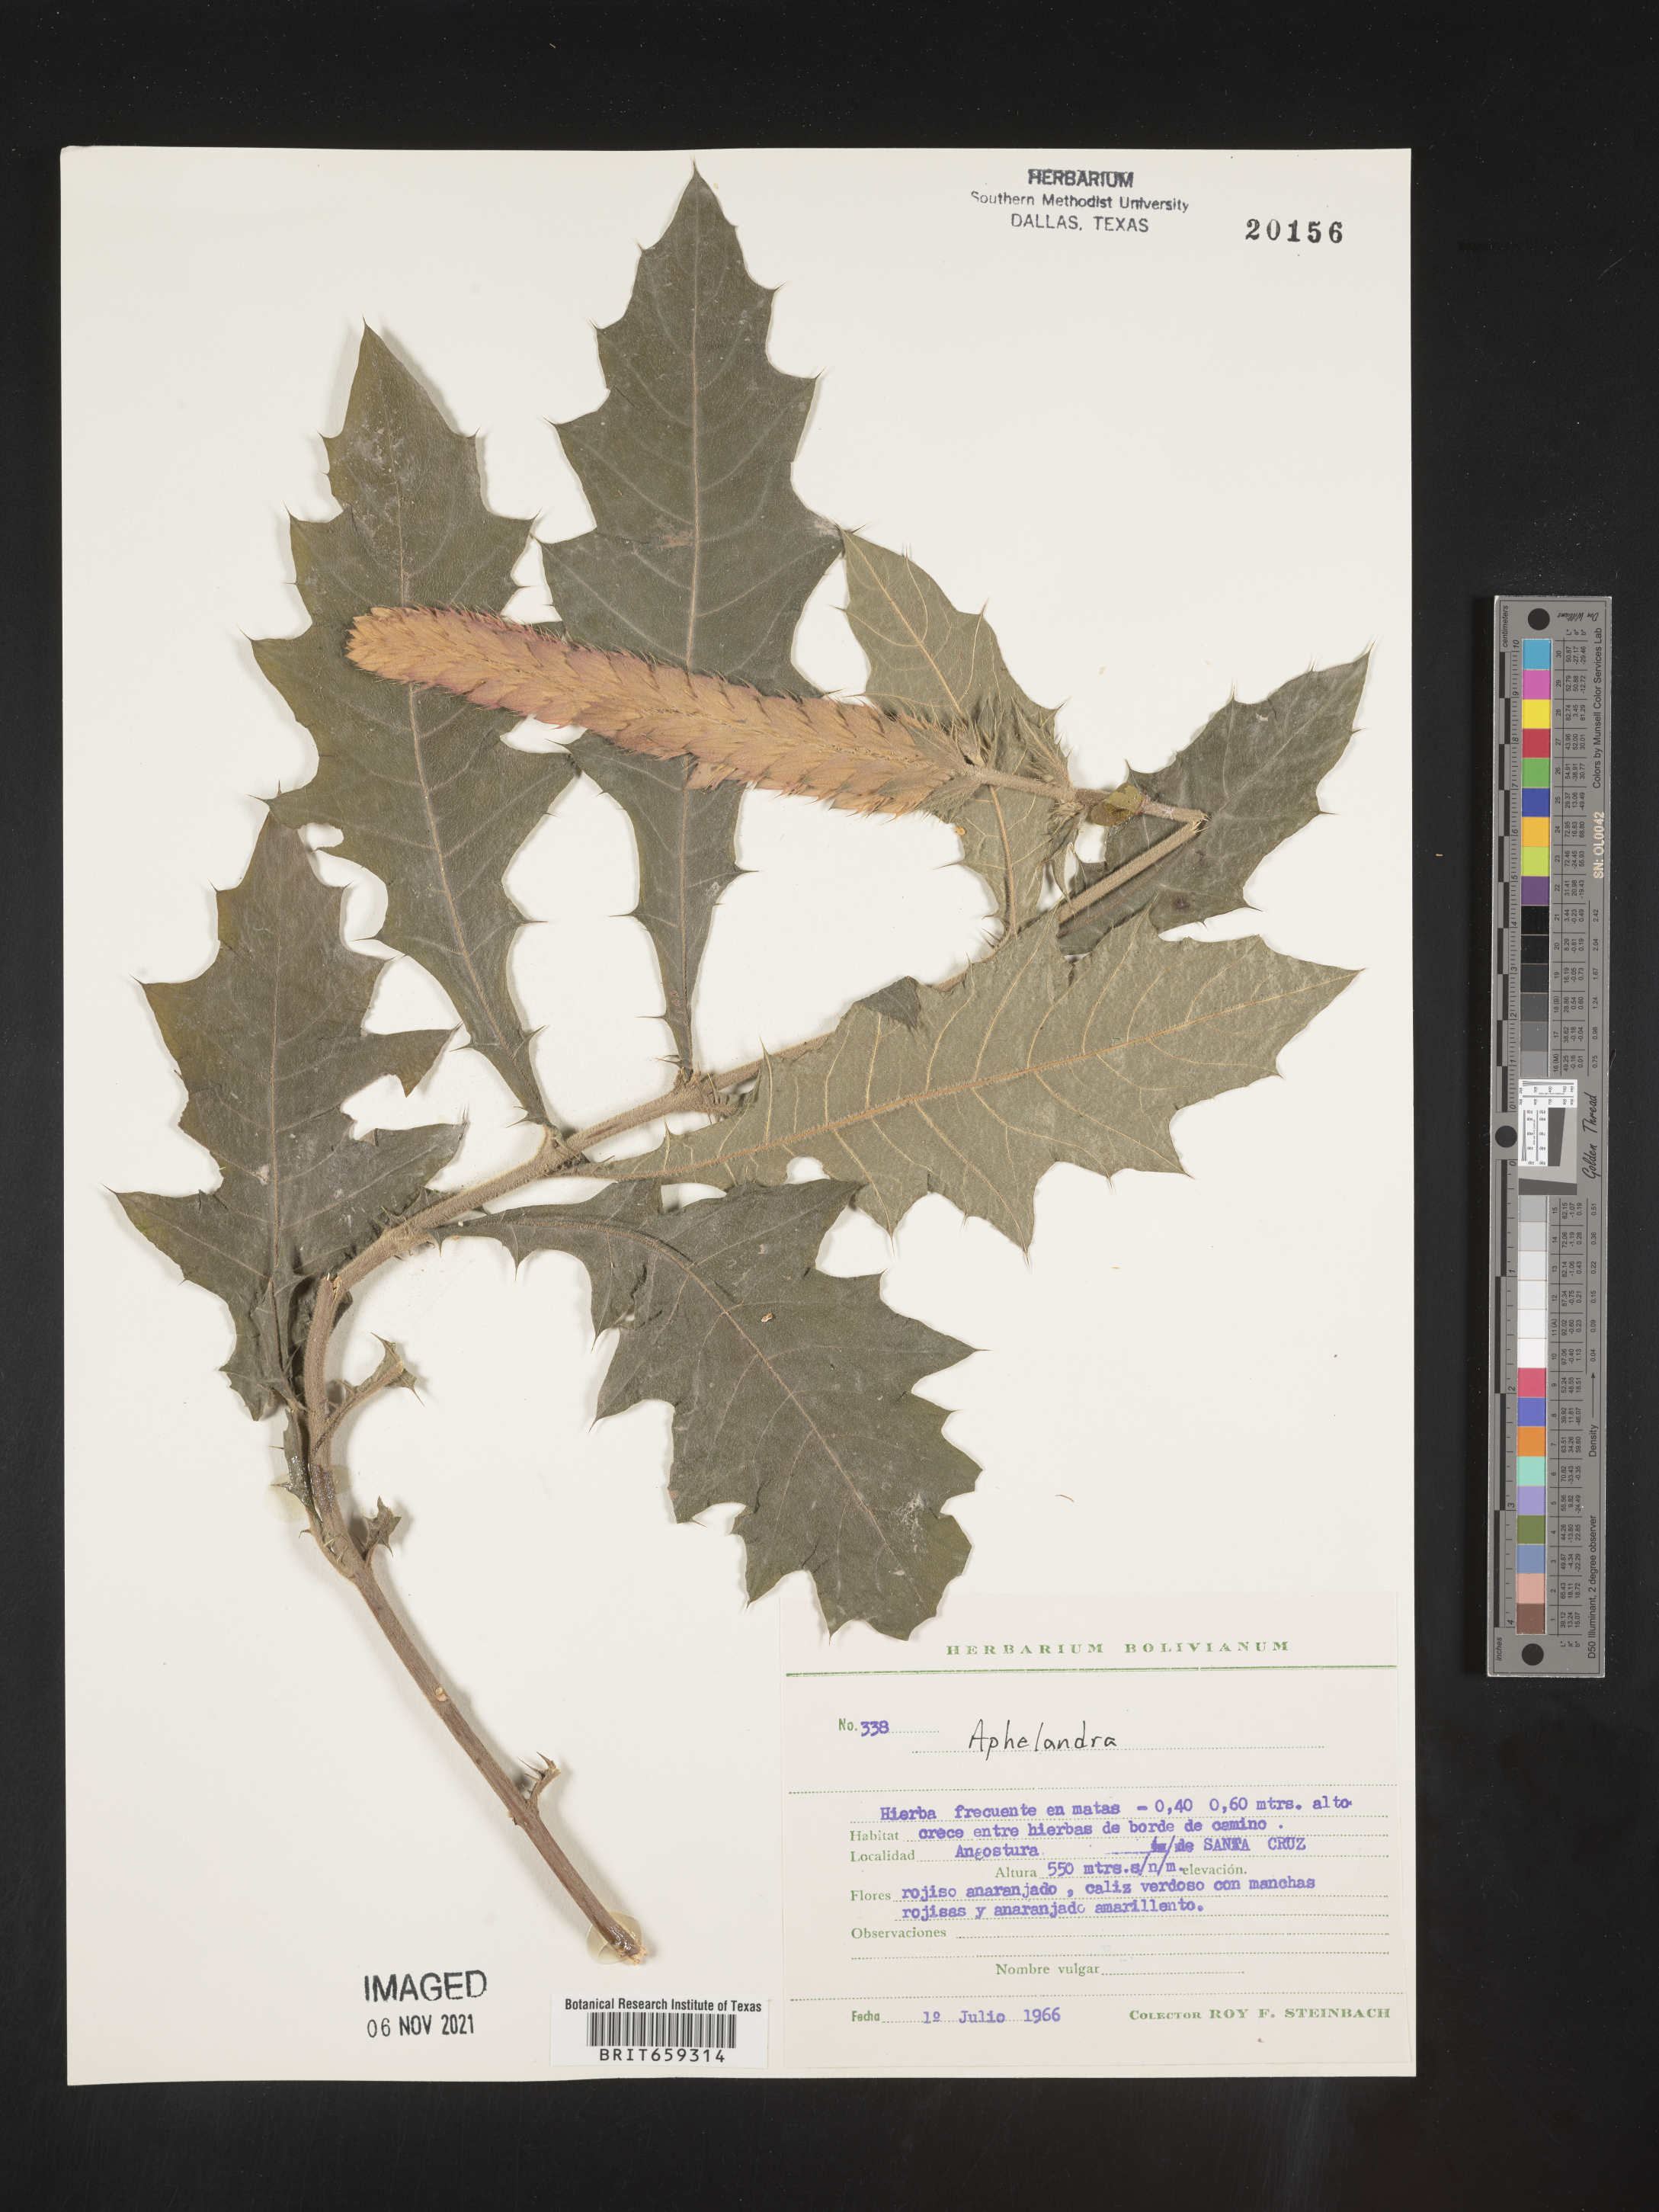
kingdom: Plantae
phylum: Tracheophyta
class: Magnoliopsida
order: Lamiales
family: Acanthaceae
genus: Aphelandra
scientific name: Aphelandra
